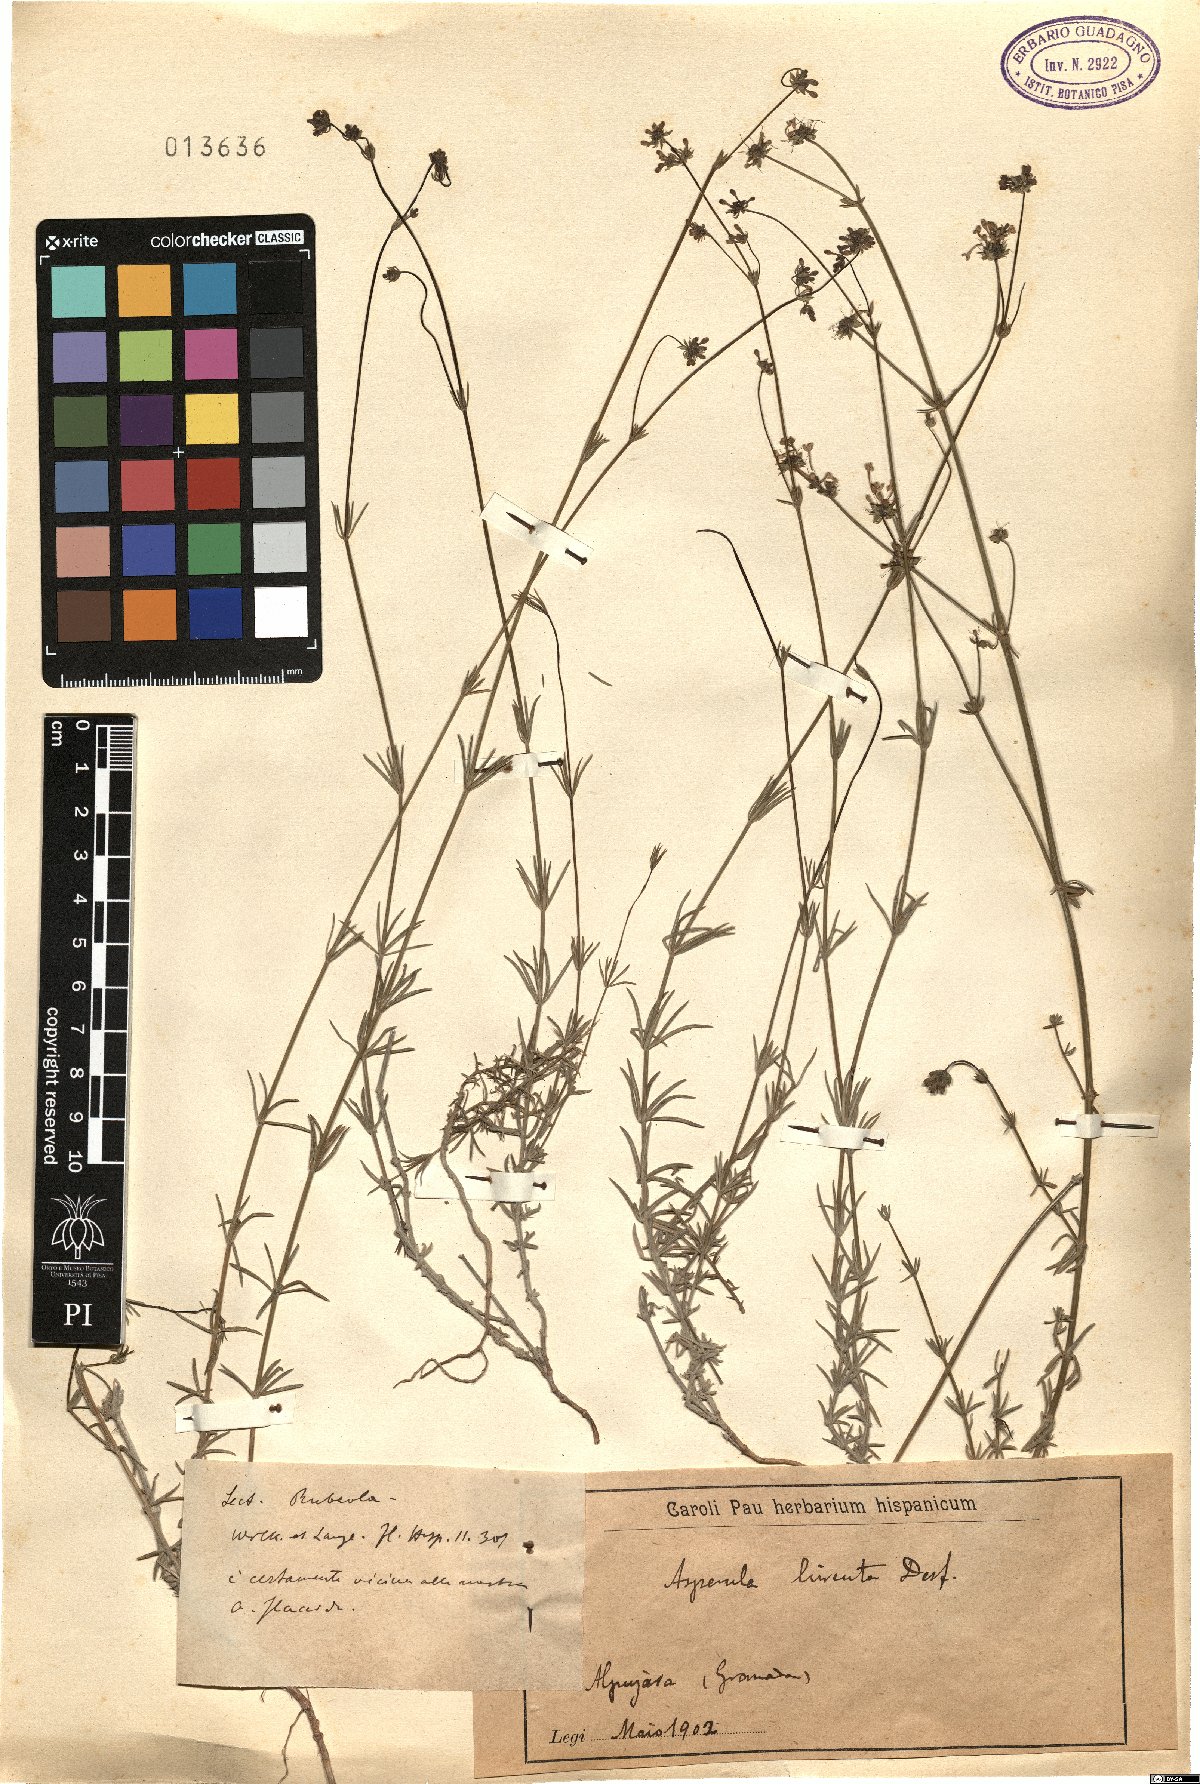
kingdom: Plantae
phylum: Tracheophyta
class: Magnoliopsida
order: Gentianales
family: Rubiaceae
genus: Hexaphylla
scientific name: Hexaphylla hirsuta
